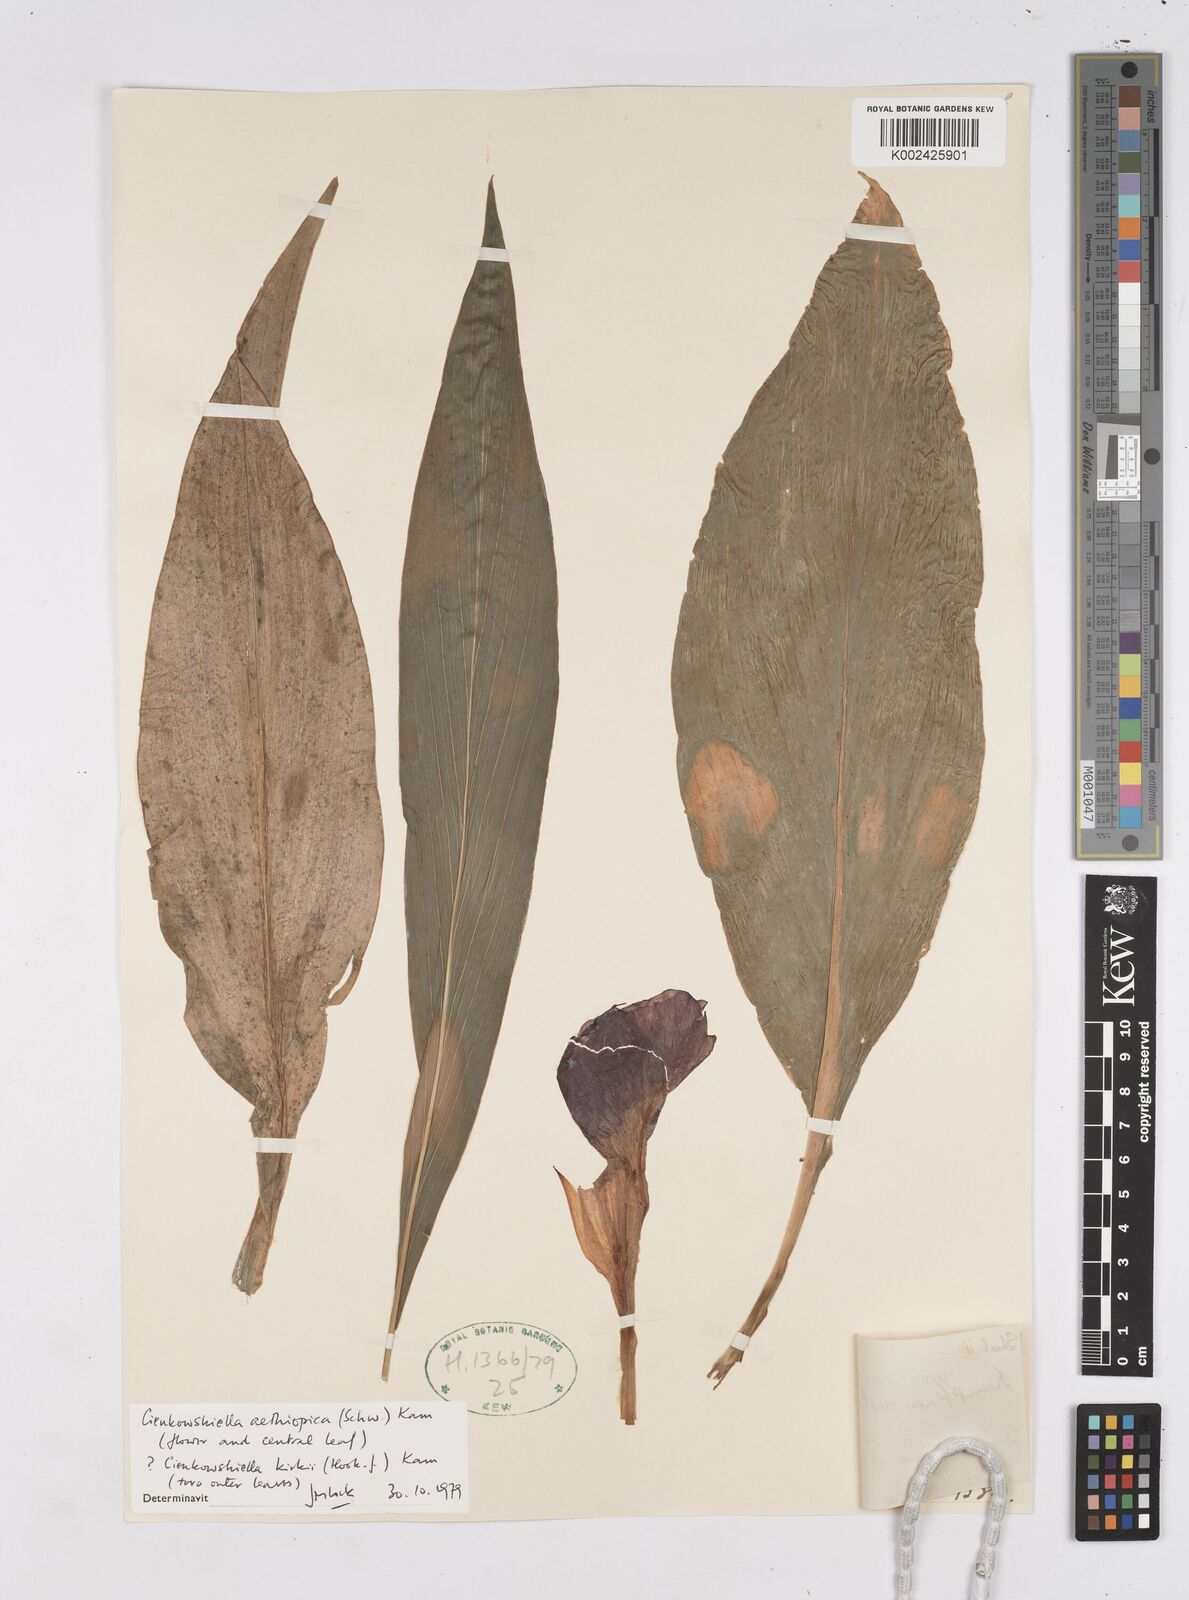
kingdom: Plantae
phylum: Tracheophyta
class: Liliopsida
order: Zingiberales
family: Zingiberaceae
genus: Siphonochilus
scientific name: Siphonochilus aethiopicus
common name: African-ginger
